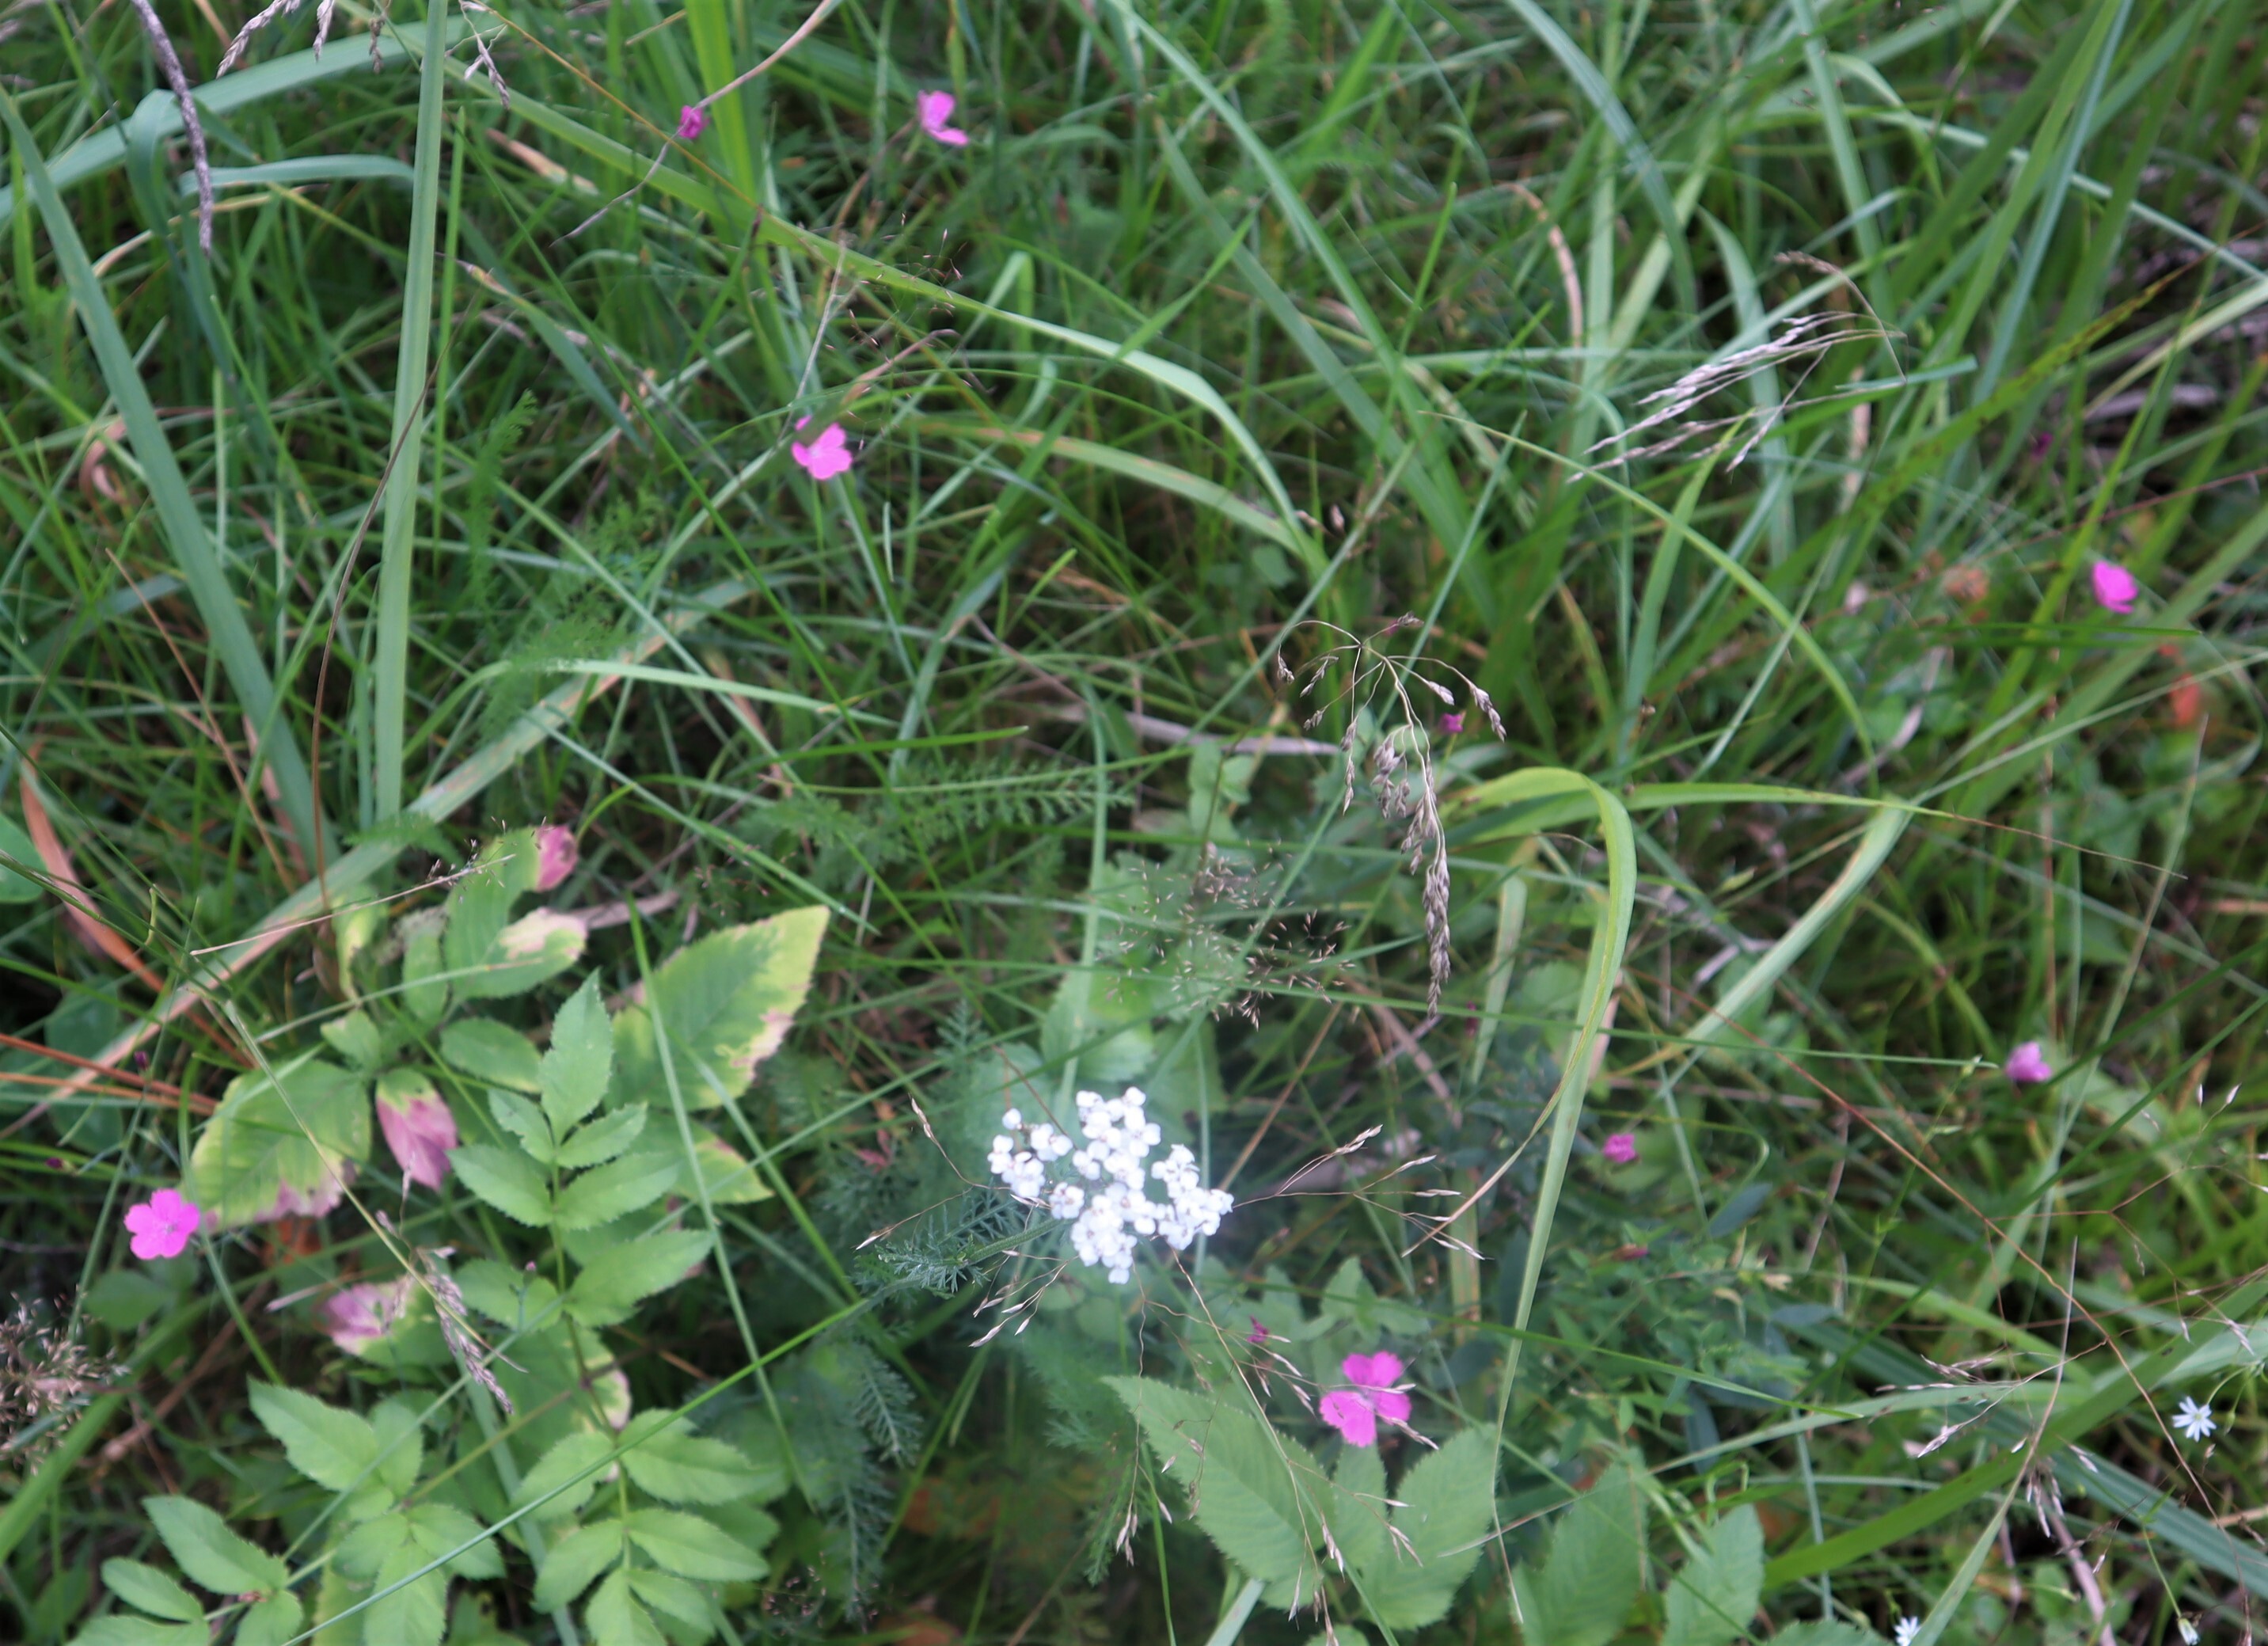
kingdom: Plantae
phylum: Tracheophyta
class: Magnoliopsida
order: Caryophyllales
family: Caryophyllaceae
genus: Dianthus
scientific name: Dianthus deltoides
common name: Maiden pink
